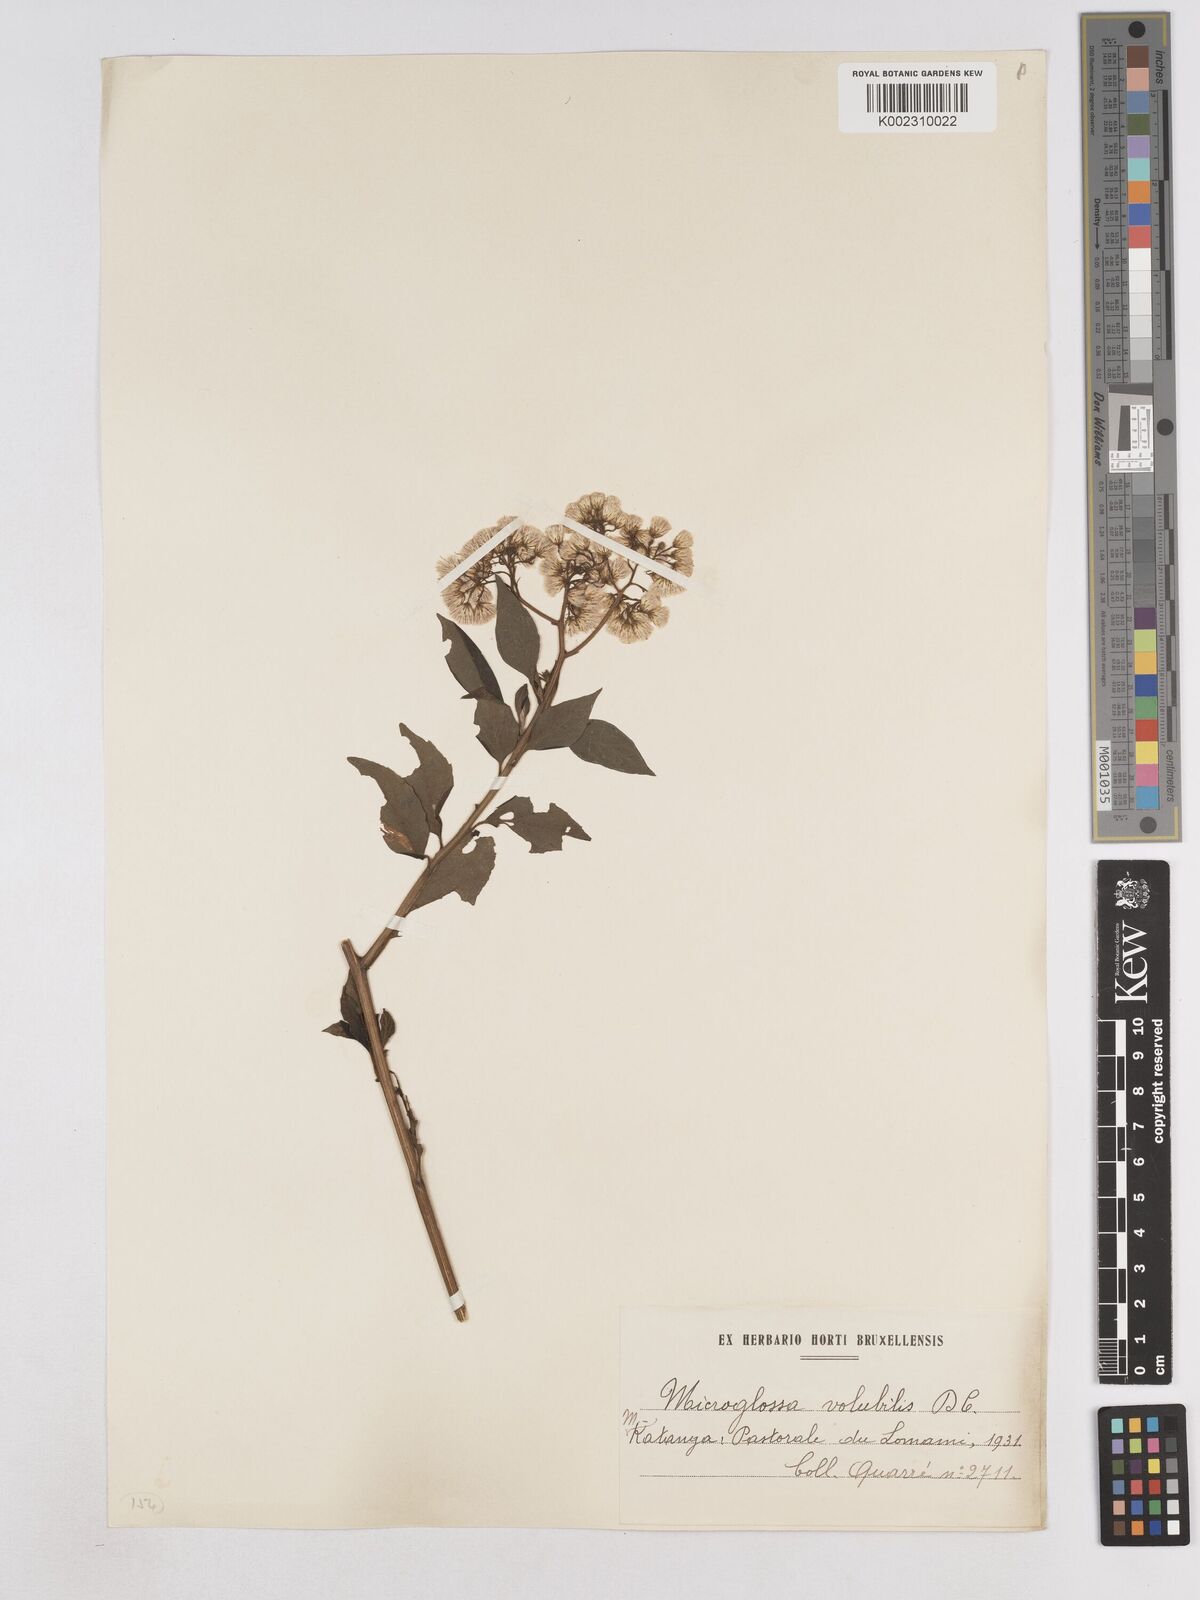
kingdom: Plantae
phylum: Tracheophyta
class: Magnoliopsida
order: Asterales
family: Asteraceae
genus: Microglossa
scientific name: Microglossa pyrifolia
